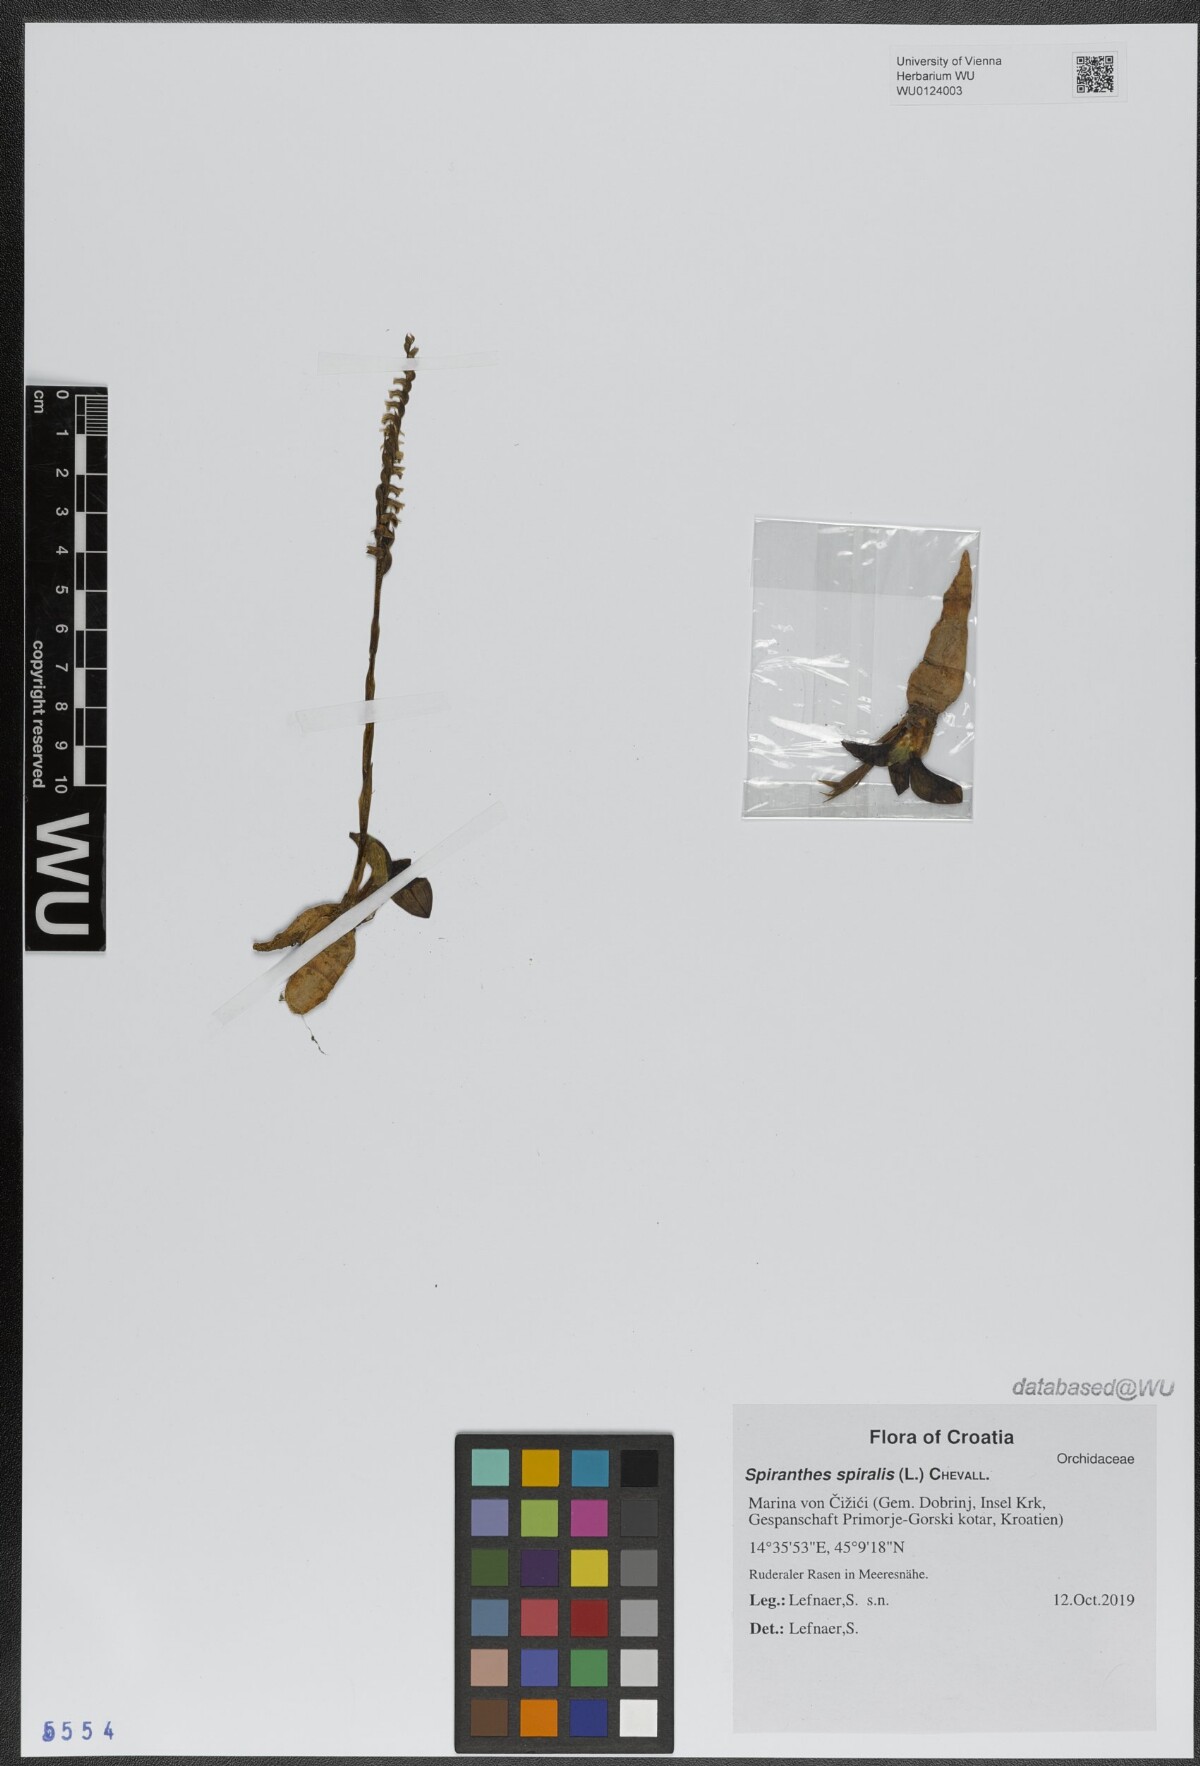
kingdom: Plantae
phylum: Tracheophyta
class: Liliopsida
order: Asparagales
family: Orchidaceae
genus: Spiranthes
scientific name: Spiranthes spiralis
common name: Autumn lady's-tresses
